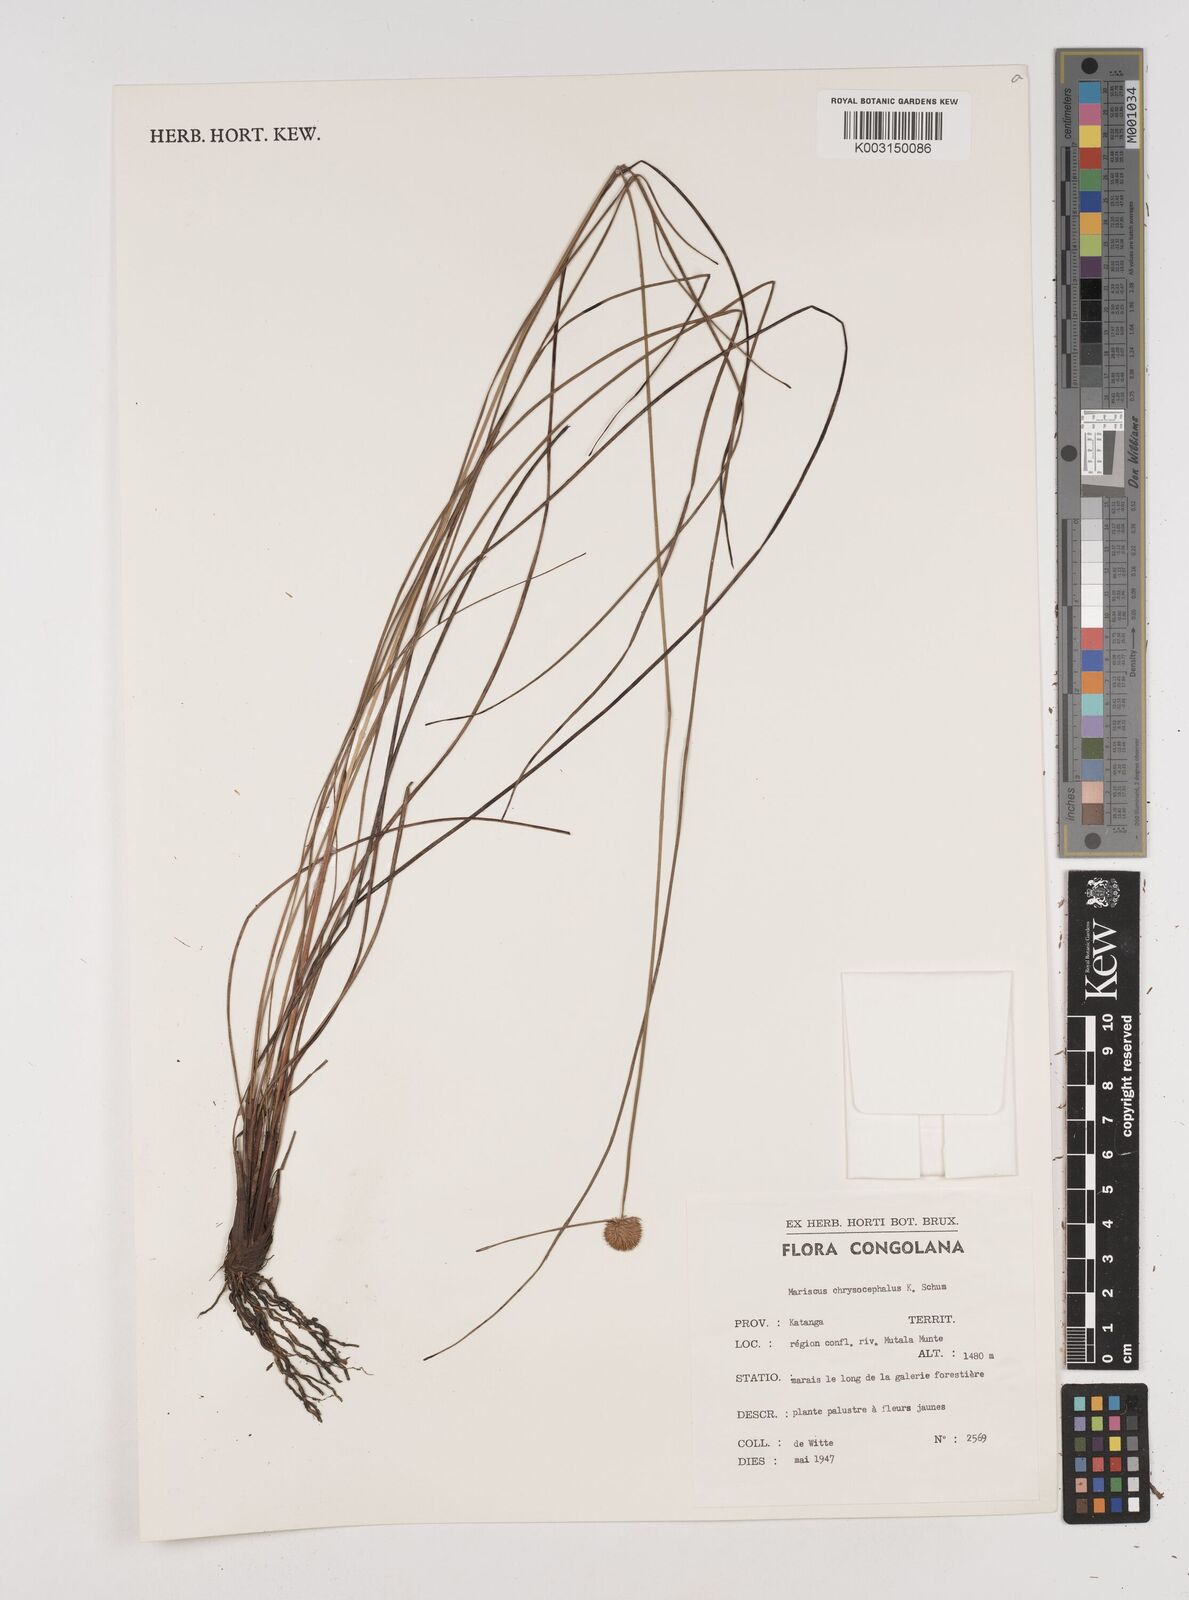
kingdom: Plantae
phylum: Tracheophyta
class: Liliopsida
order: Poales
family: Cyperaceae
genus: Cyperus
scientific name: Cyperus chrysocephalus
